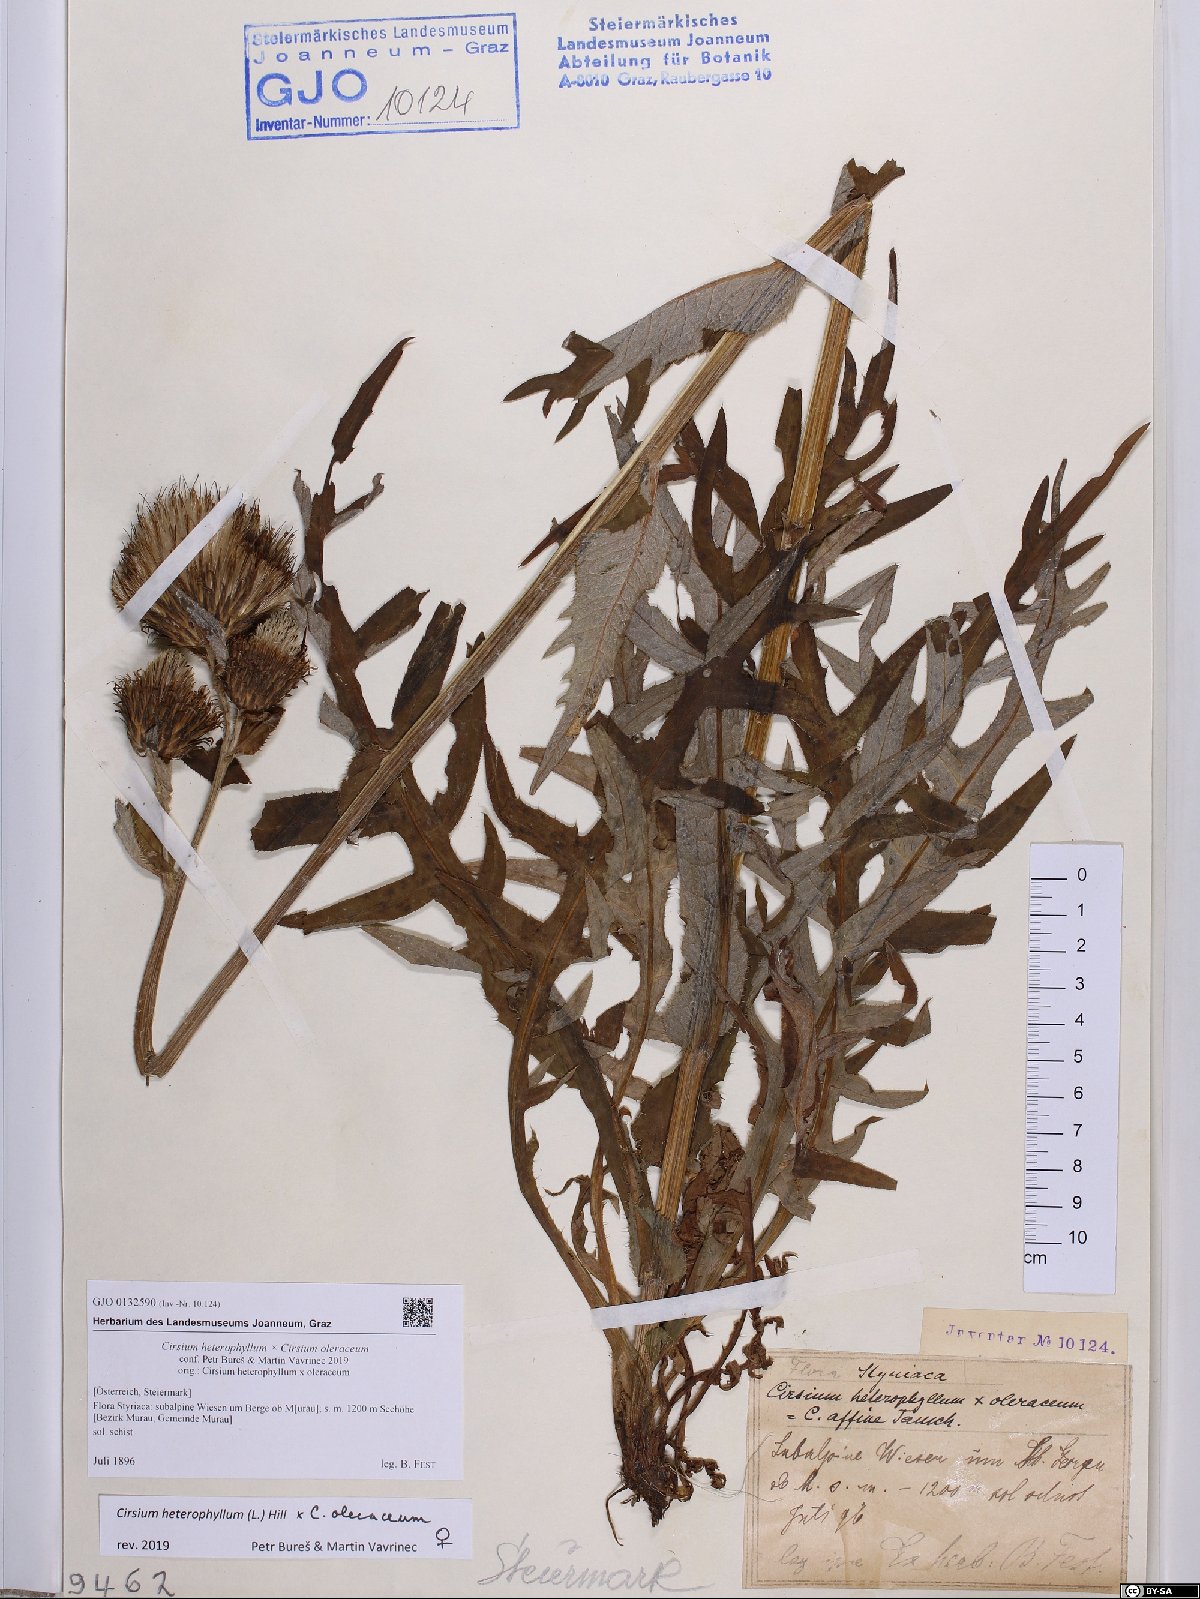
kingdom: Plantae
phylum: Tracheophyta
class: Magnoliopsida
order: Asterales
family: Asteraceae
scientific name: Asteraceae
